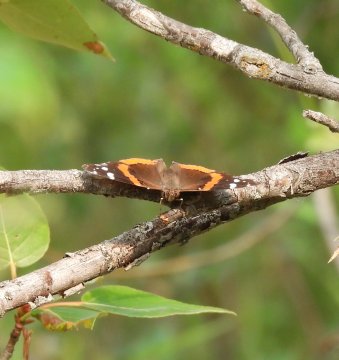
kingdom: Animalia
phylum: Arthropoda
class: Insecta
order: Lepidoptera
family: Nymphalidae
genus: Vanessa
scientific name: Vanessa atalanta
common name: Red Admiral
